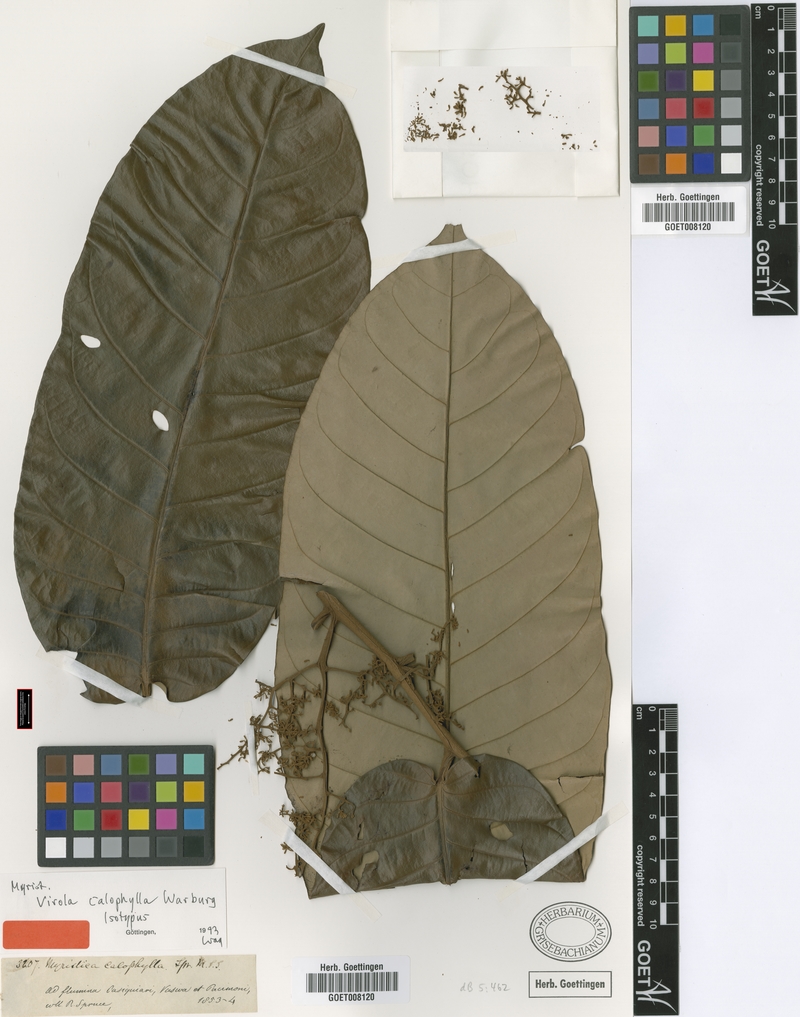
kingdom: Plantae
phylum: Tracheophyta
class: Magnoliopsida
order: Magnoliales
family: Myristicaceae
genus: Virola
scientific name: Virola calophylla
